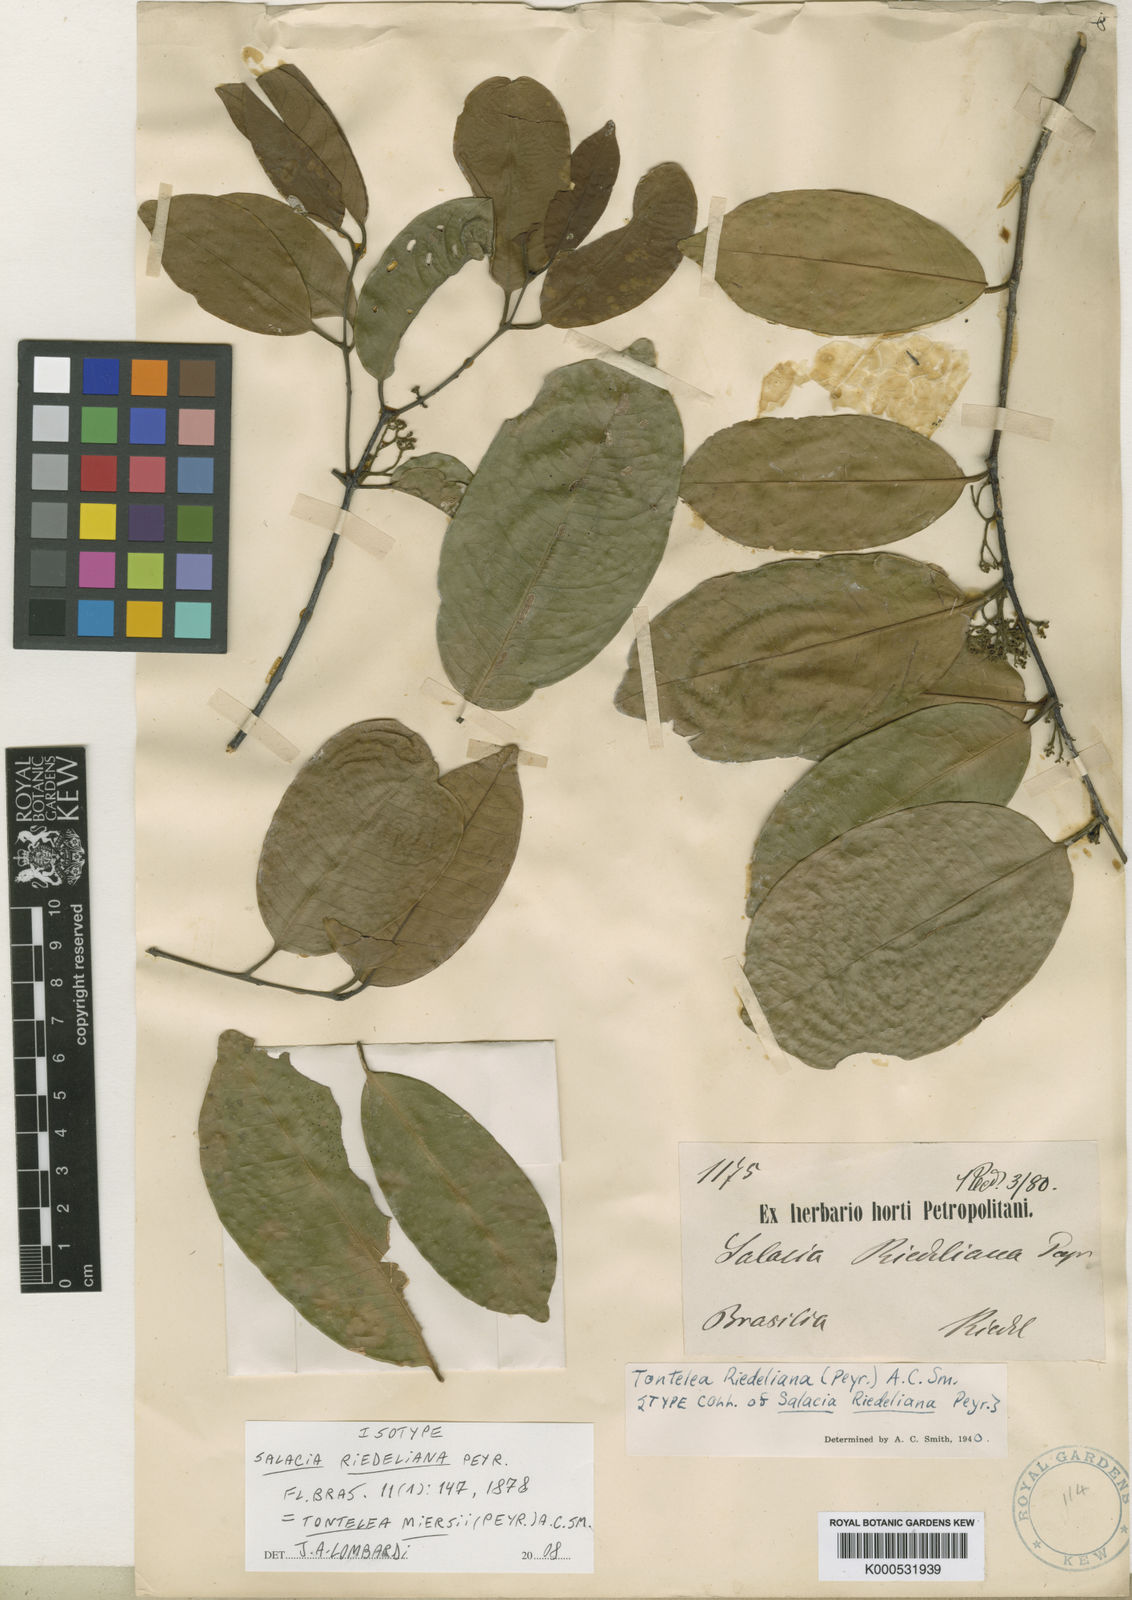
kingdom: Plantae
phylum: Tracheophyta
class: Magnoliopsida
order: Celastrales
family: Celastraceae
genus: Tontelea
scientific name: Tontelea miersii
